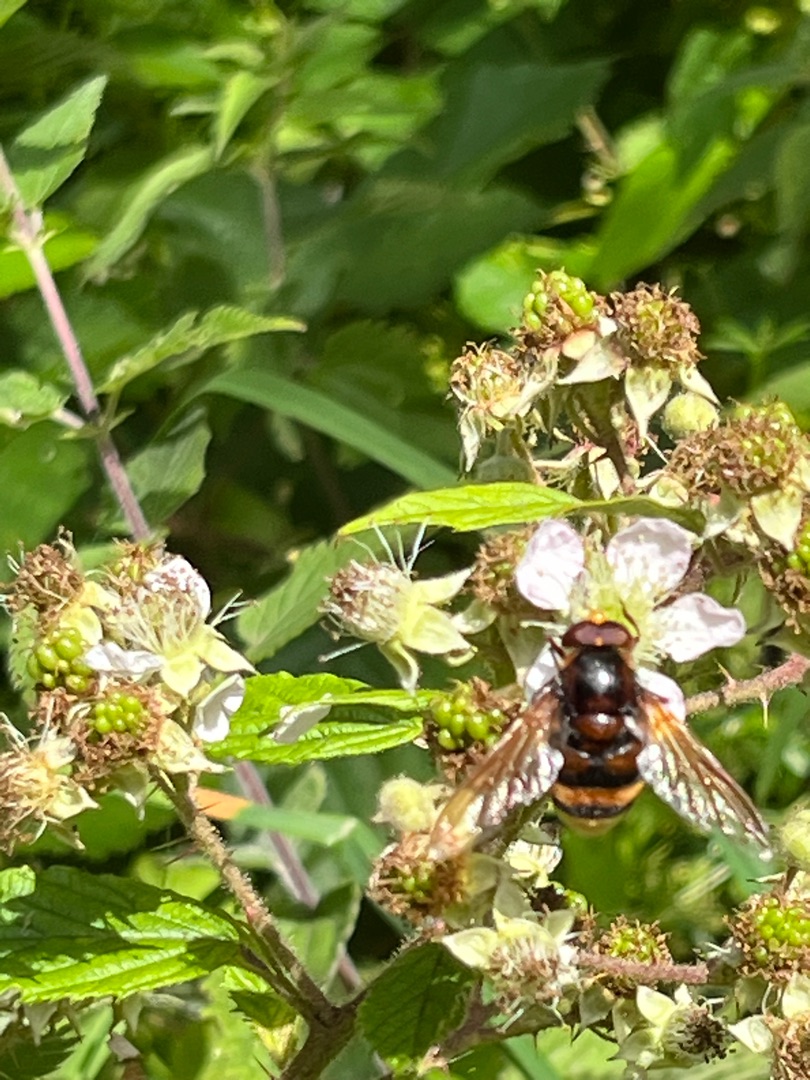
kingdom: Animalia
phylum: Arthropoda
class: Insecta
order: Diptera
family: Syrphidae
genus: Volucella
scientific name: Volucella zonaria
